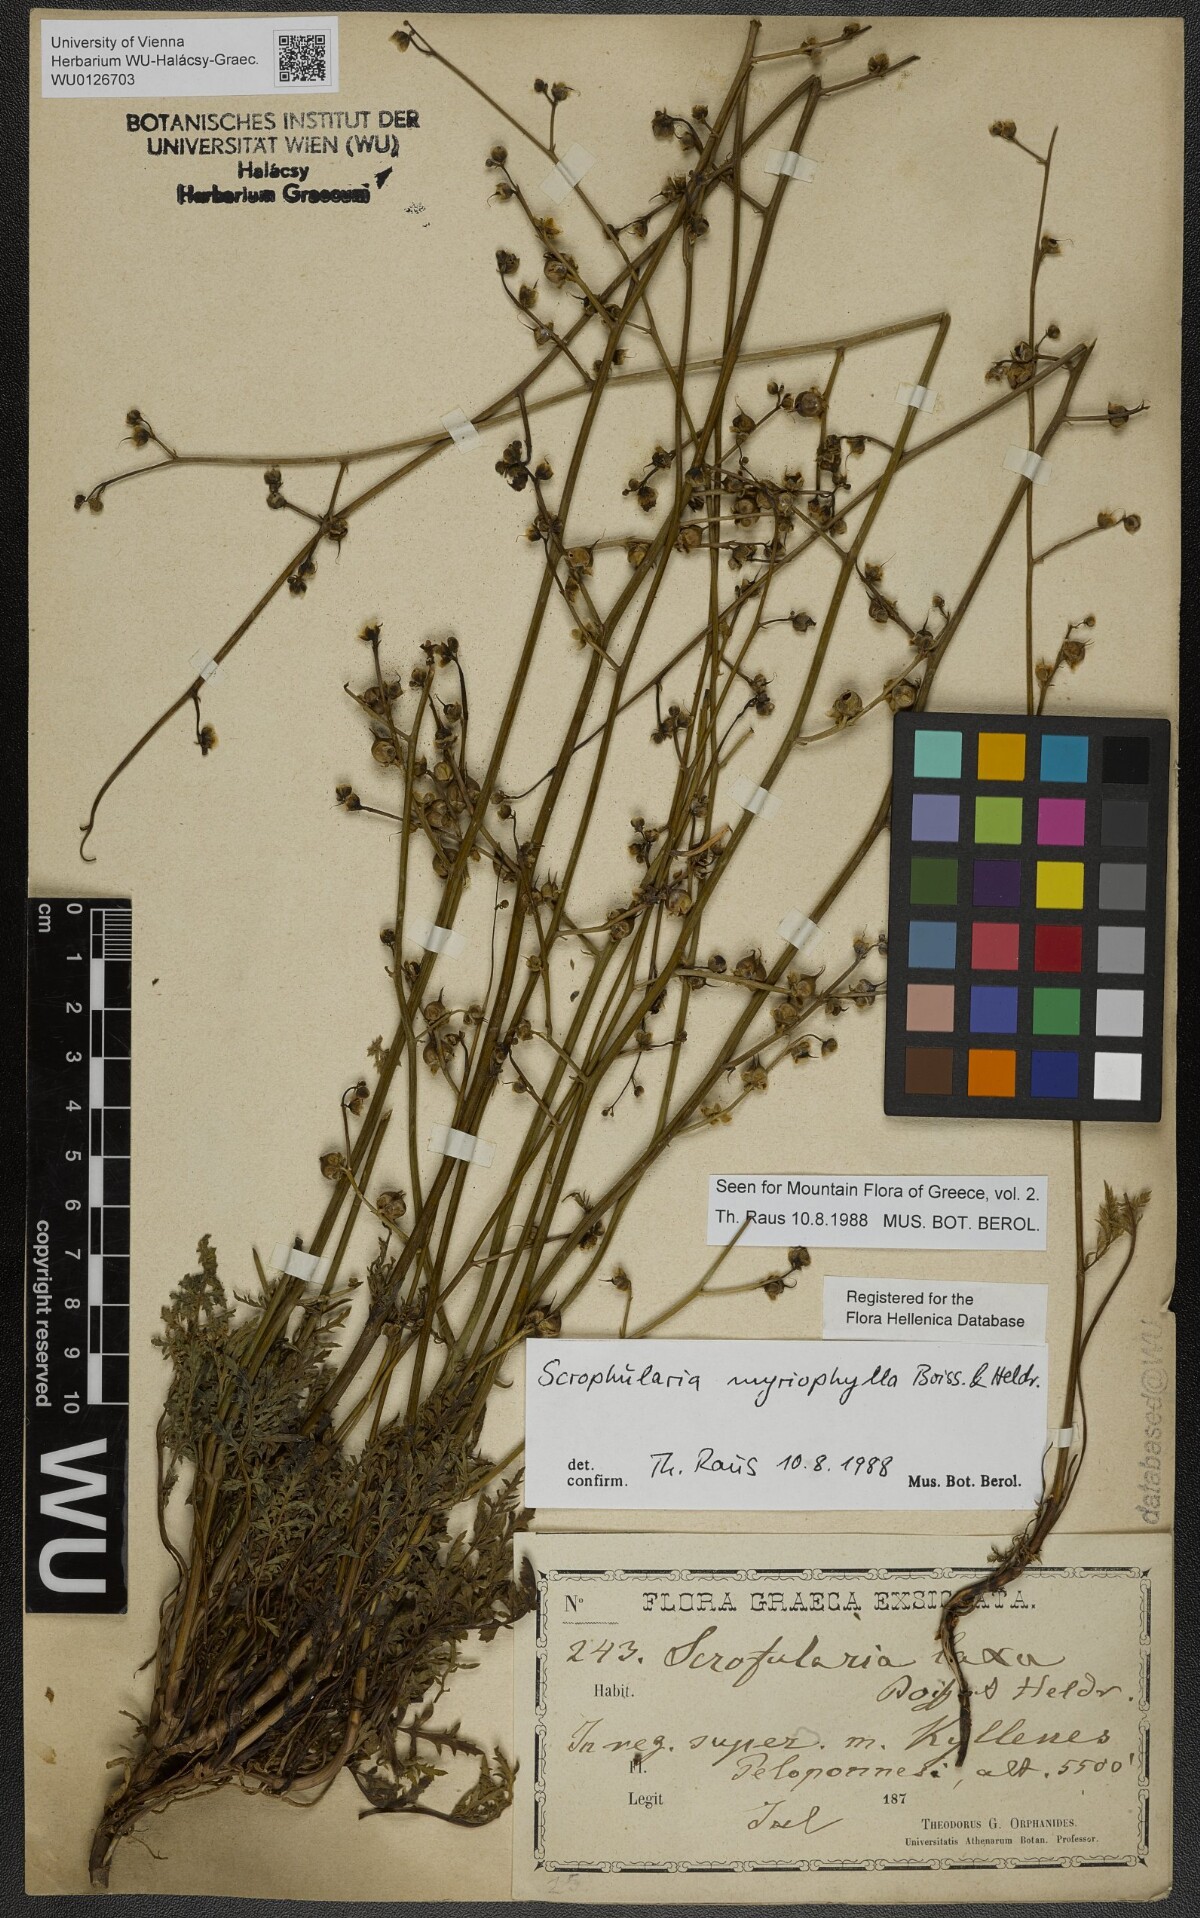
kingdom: Plantae
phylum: Tracheophyta
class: Magnoliopsida
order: Lamiales
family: Scrophulariaceae
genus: Scrophularia
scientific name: Scrophularia myriophylla
